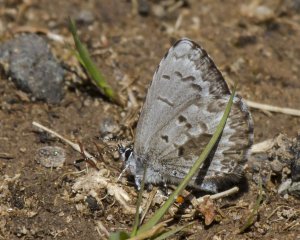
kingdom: Animalia
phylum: Arthropoda
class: Insecta
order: Lepidoptera
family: Lycaenidae
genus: Celastrina
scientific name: Celastrina lucia
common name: Northern Spring Azure
